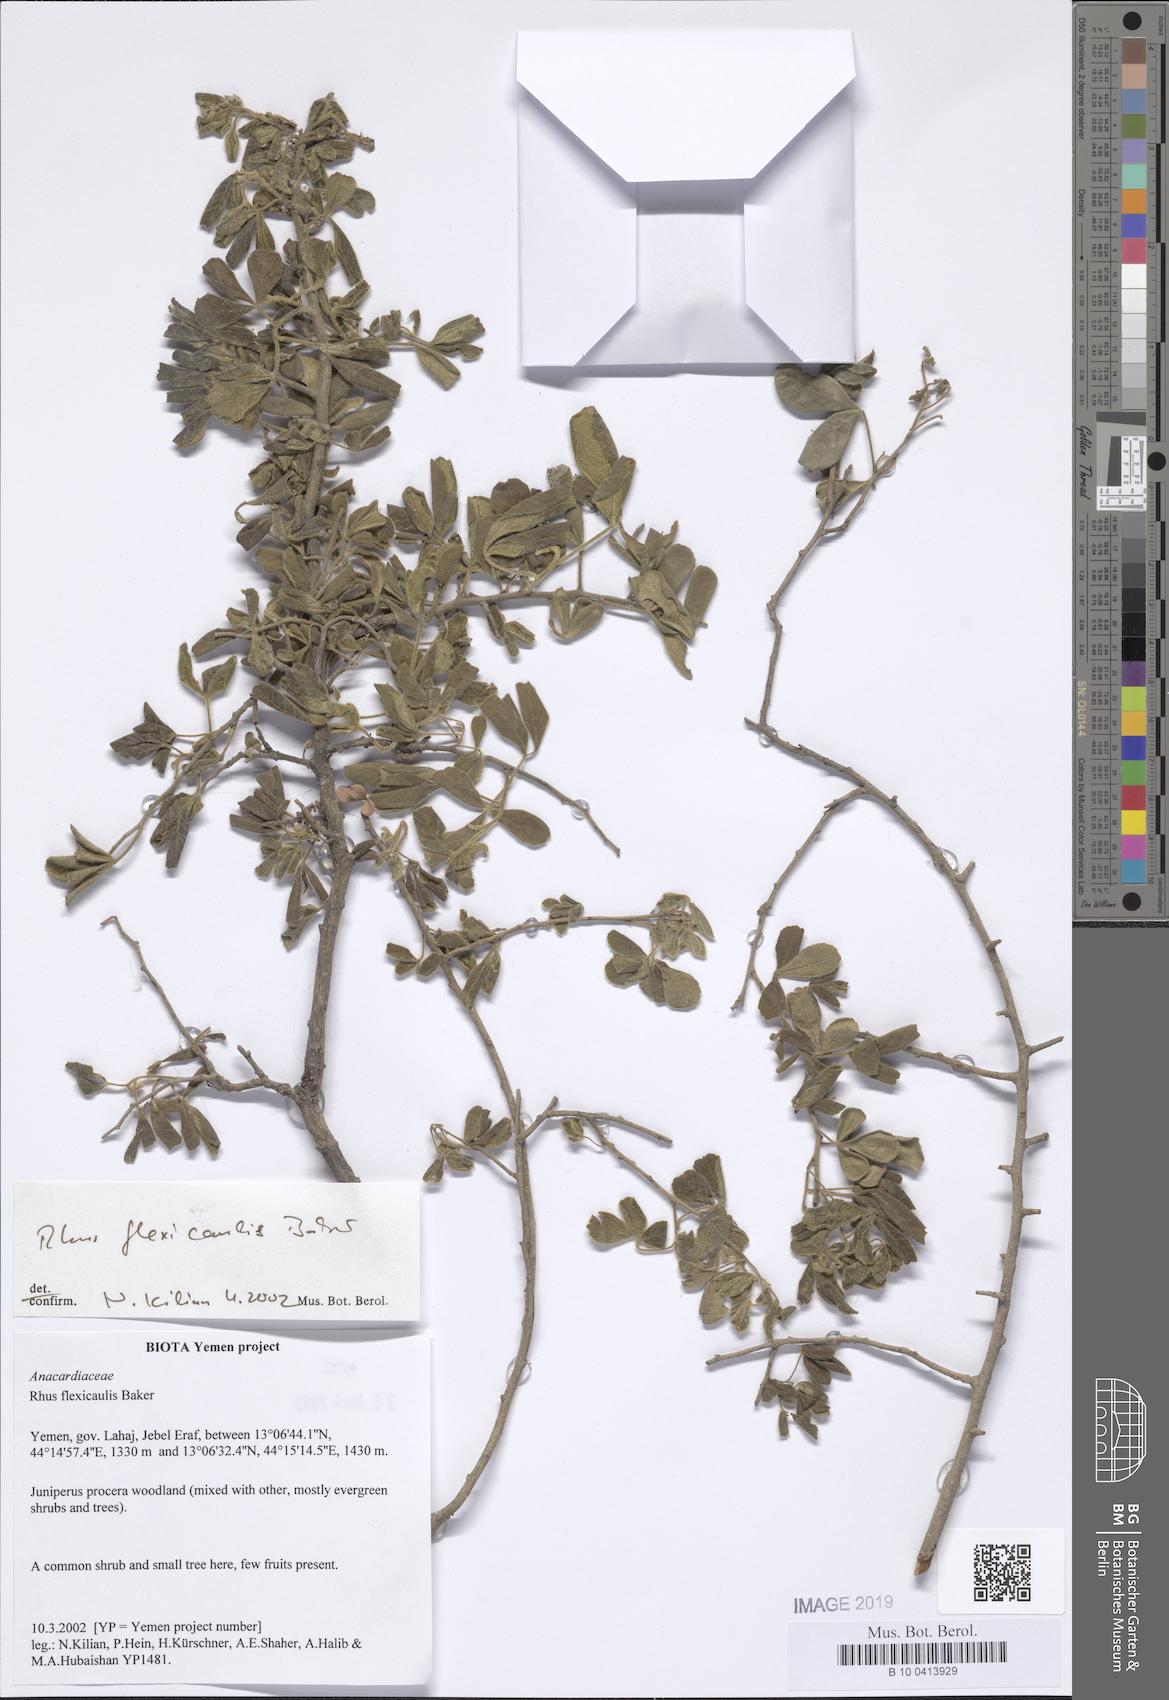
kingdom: Plantae
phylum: Tracheophyta
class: Magnoliopsida
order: Sapindales
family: Anacardiaceae
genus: Searsia
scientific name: Searsia flexicaulis
